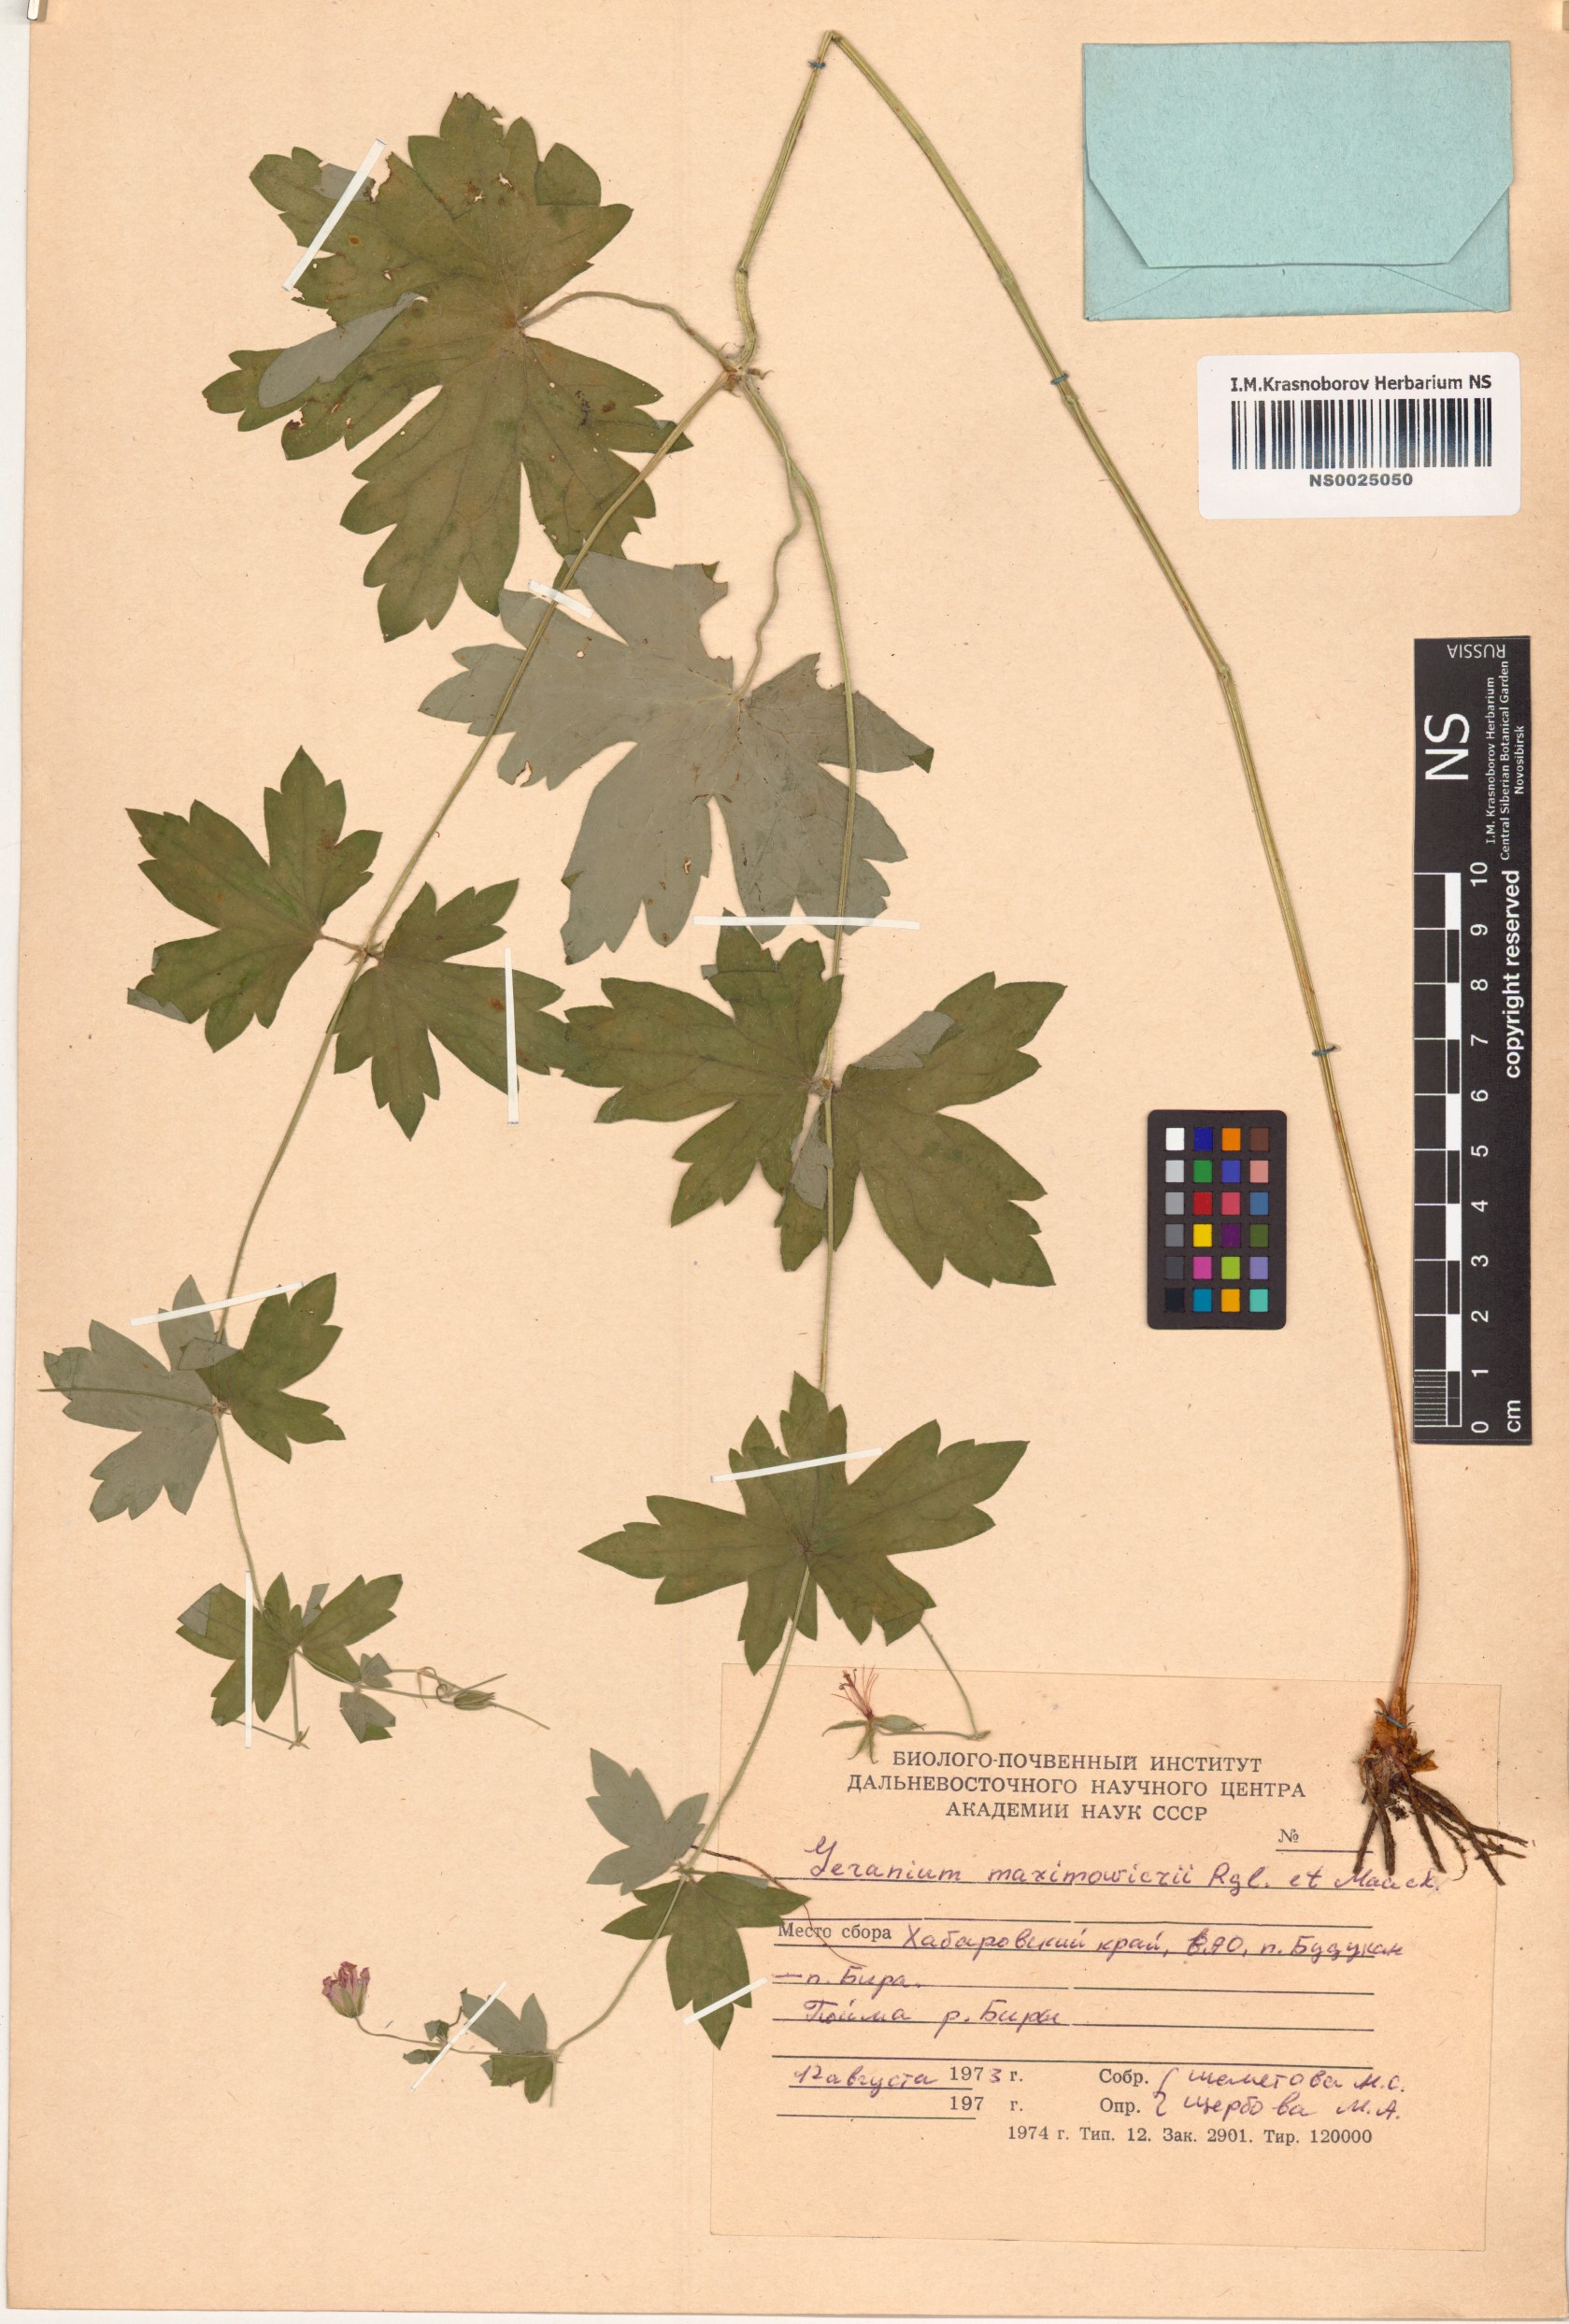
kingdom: Plantae
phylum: Tracheophyta
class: Magnoliopsida
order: Geraniales
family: Geraniaceae
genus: Geranium
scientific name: Geranium maximowiczii
